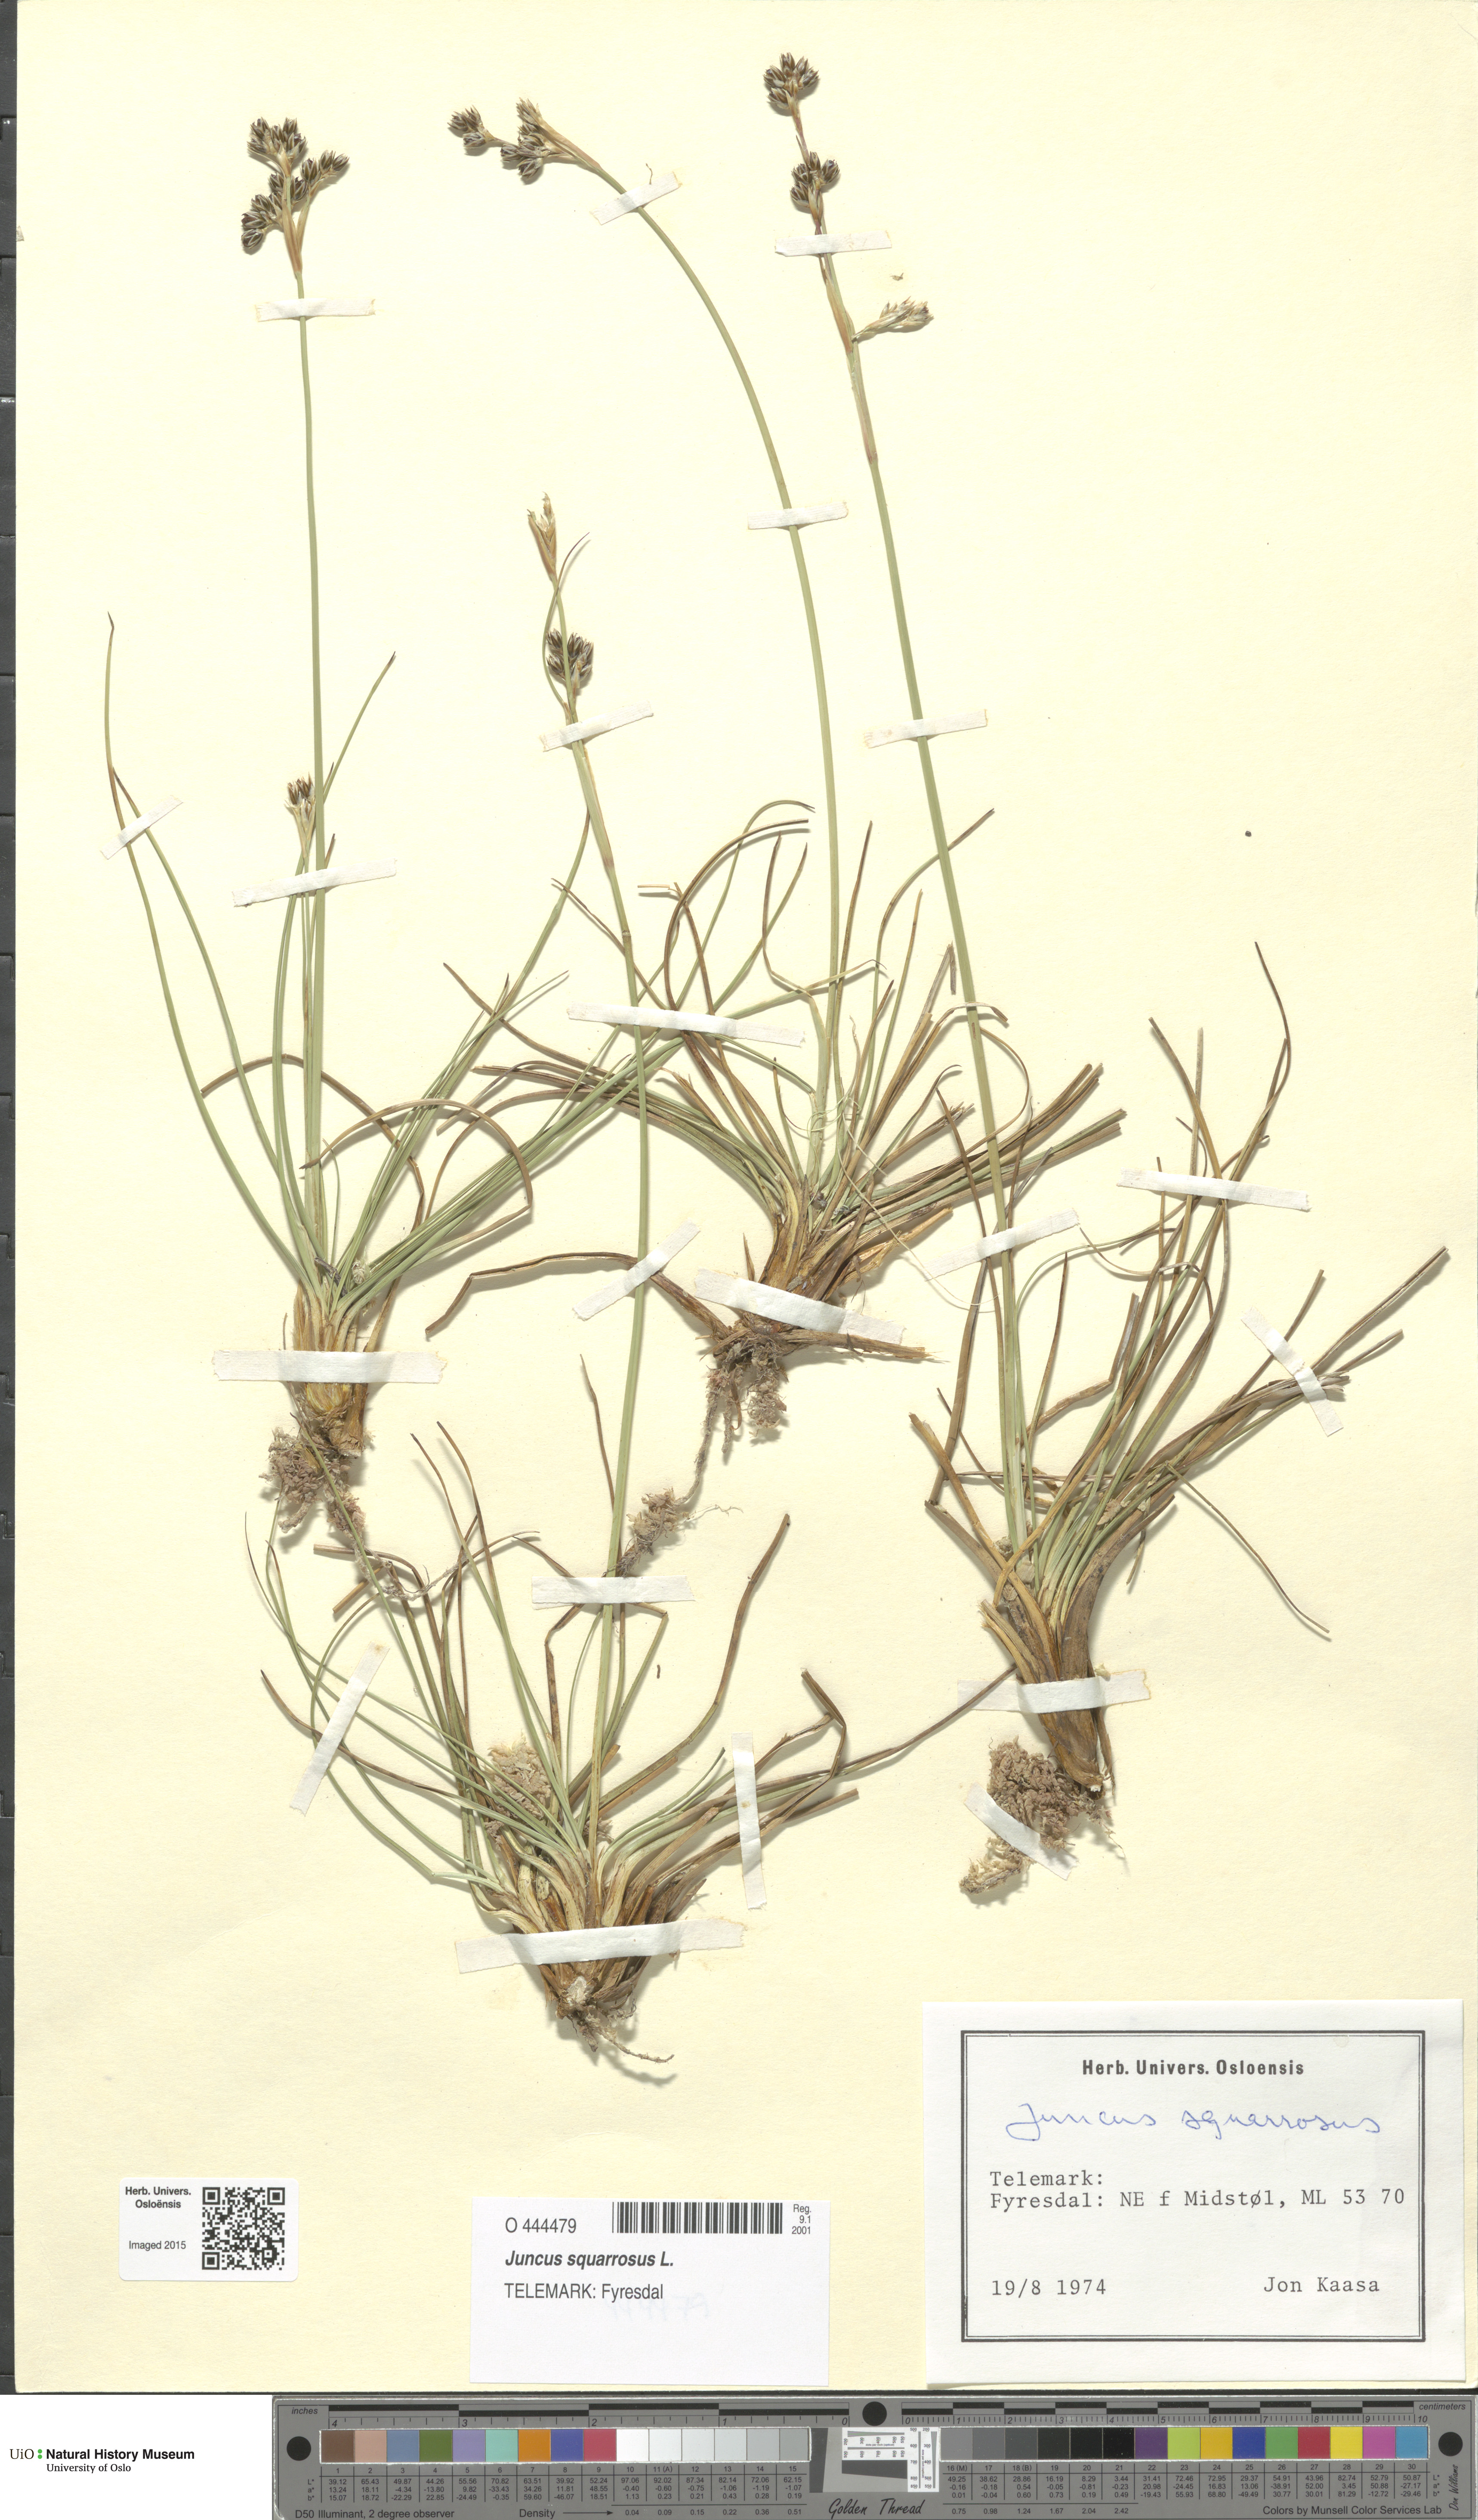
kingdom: Plantae
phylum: Tracheophyta
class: Liliopsida
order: Poales
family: Juncaceae
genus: Juncus
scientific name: Juncus squarrosus
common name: Heath rush
